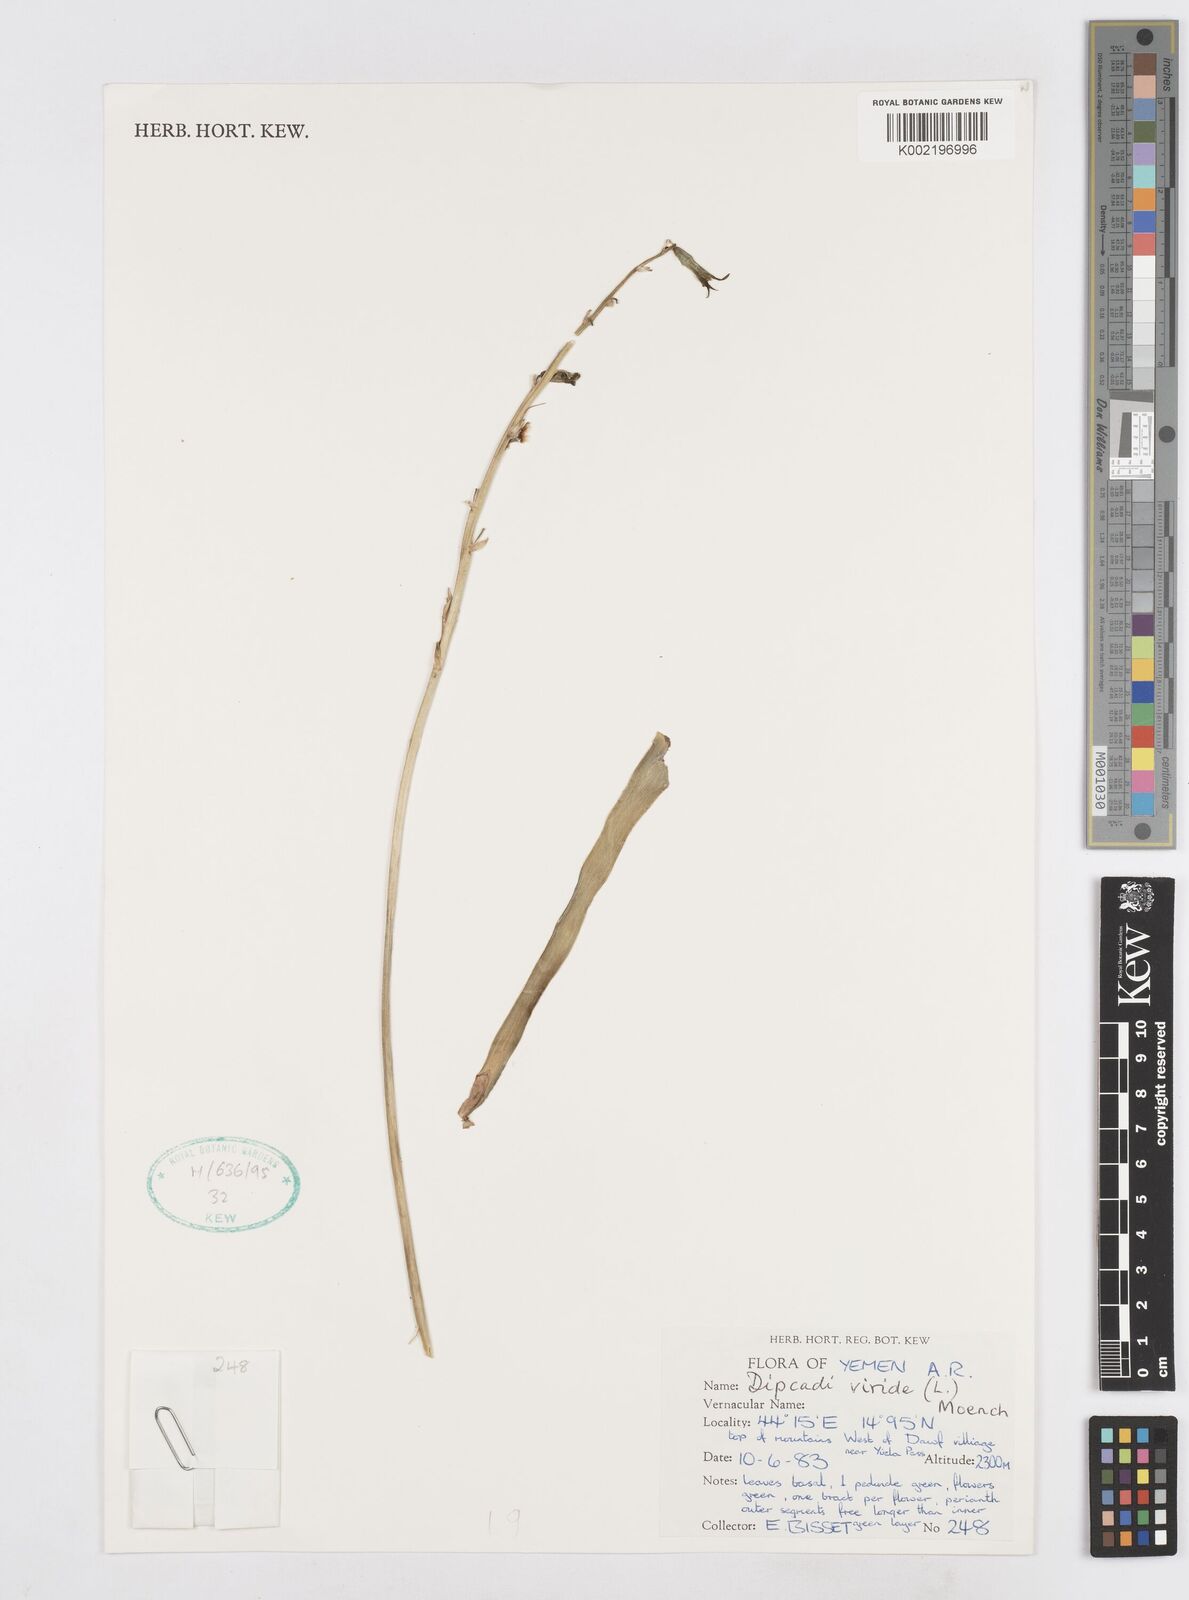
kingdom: Plantae
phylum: Tracheophyta
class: Liliopsida
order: Asparagales
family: Asparagaceae
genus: Dipcadi
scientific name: Dipcadi viride
